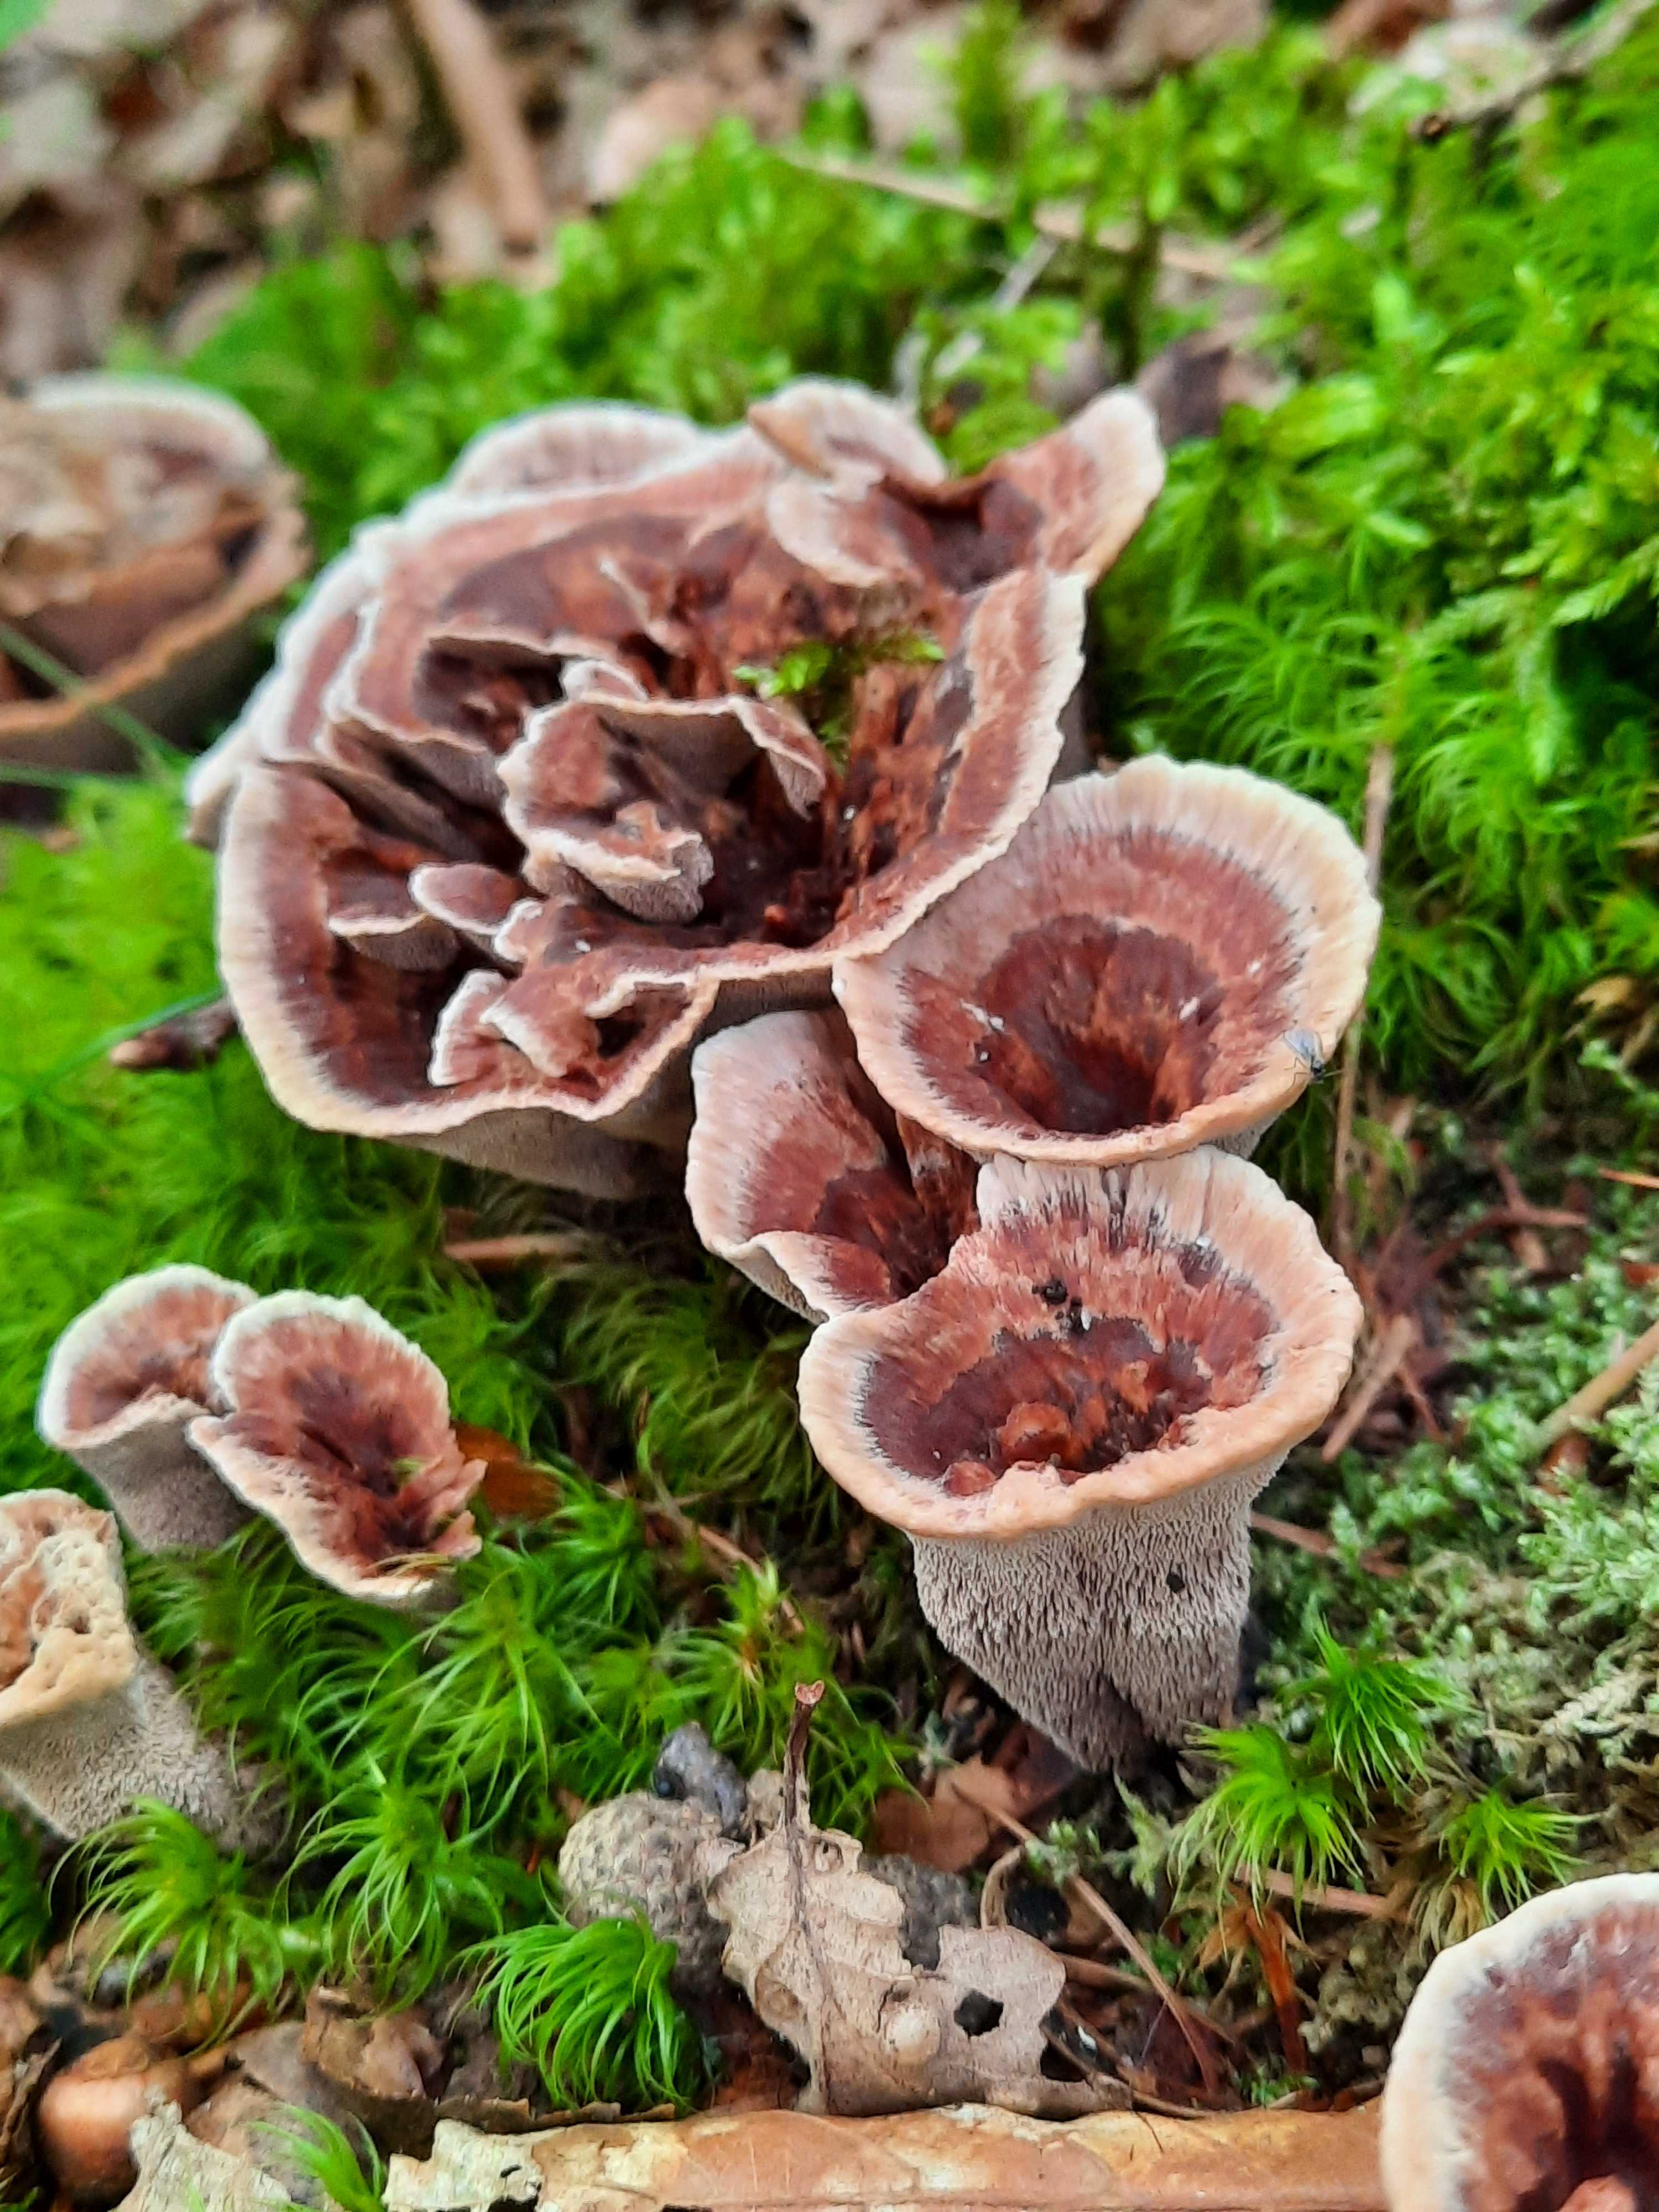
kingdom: Fungi
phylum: Basidiomycota
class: Agaricomycetes
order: Thelephorales
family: Bankeraceae
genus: Hydnellum
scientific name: Hydnellum concrescens
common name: bæltet korkpigsvamp
